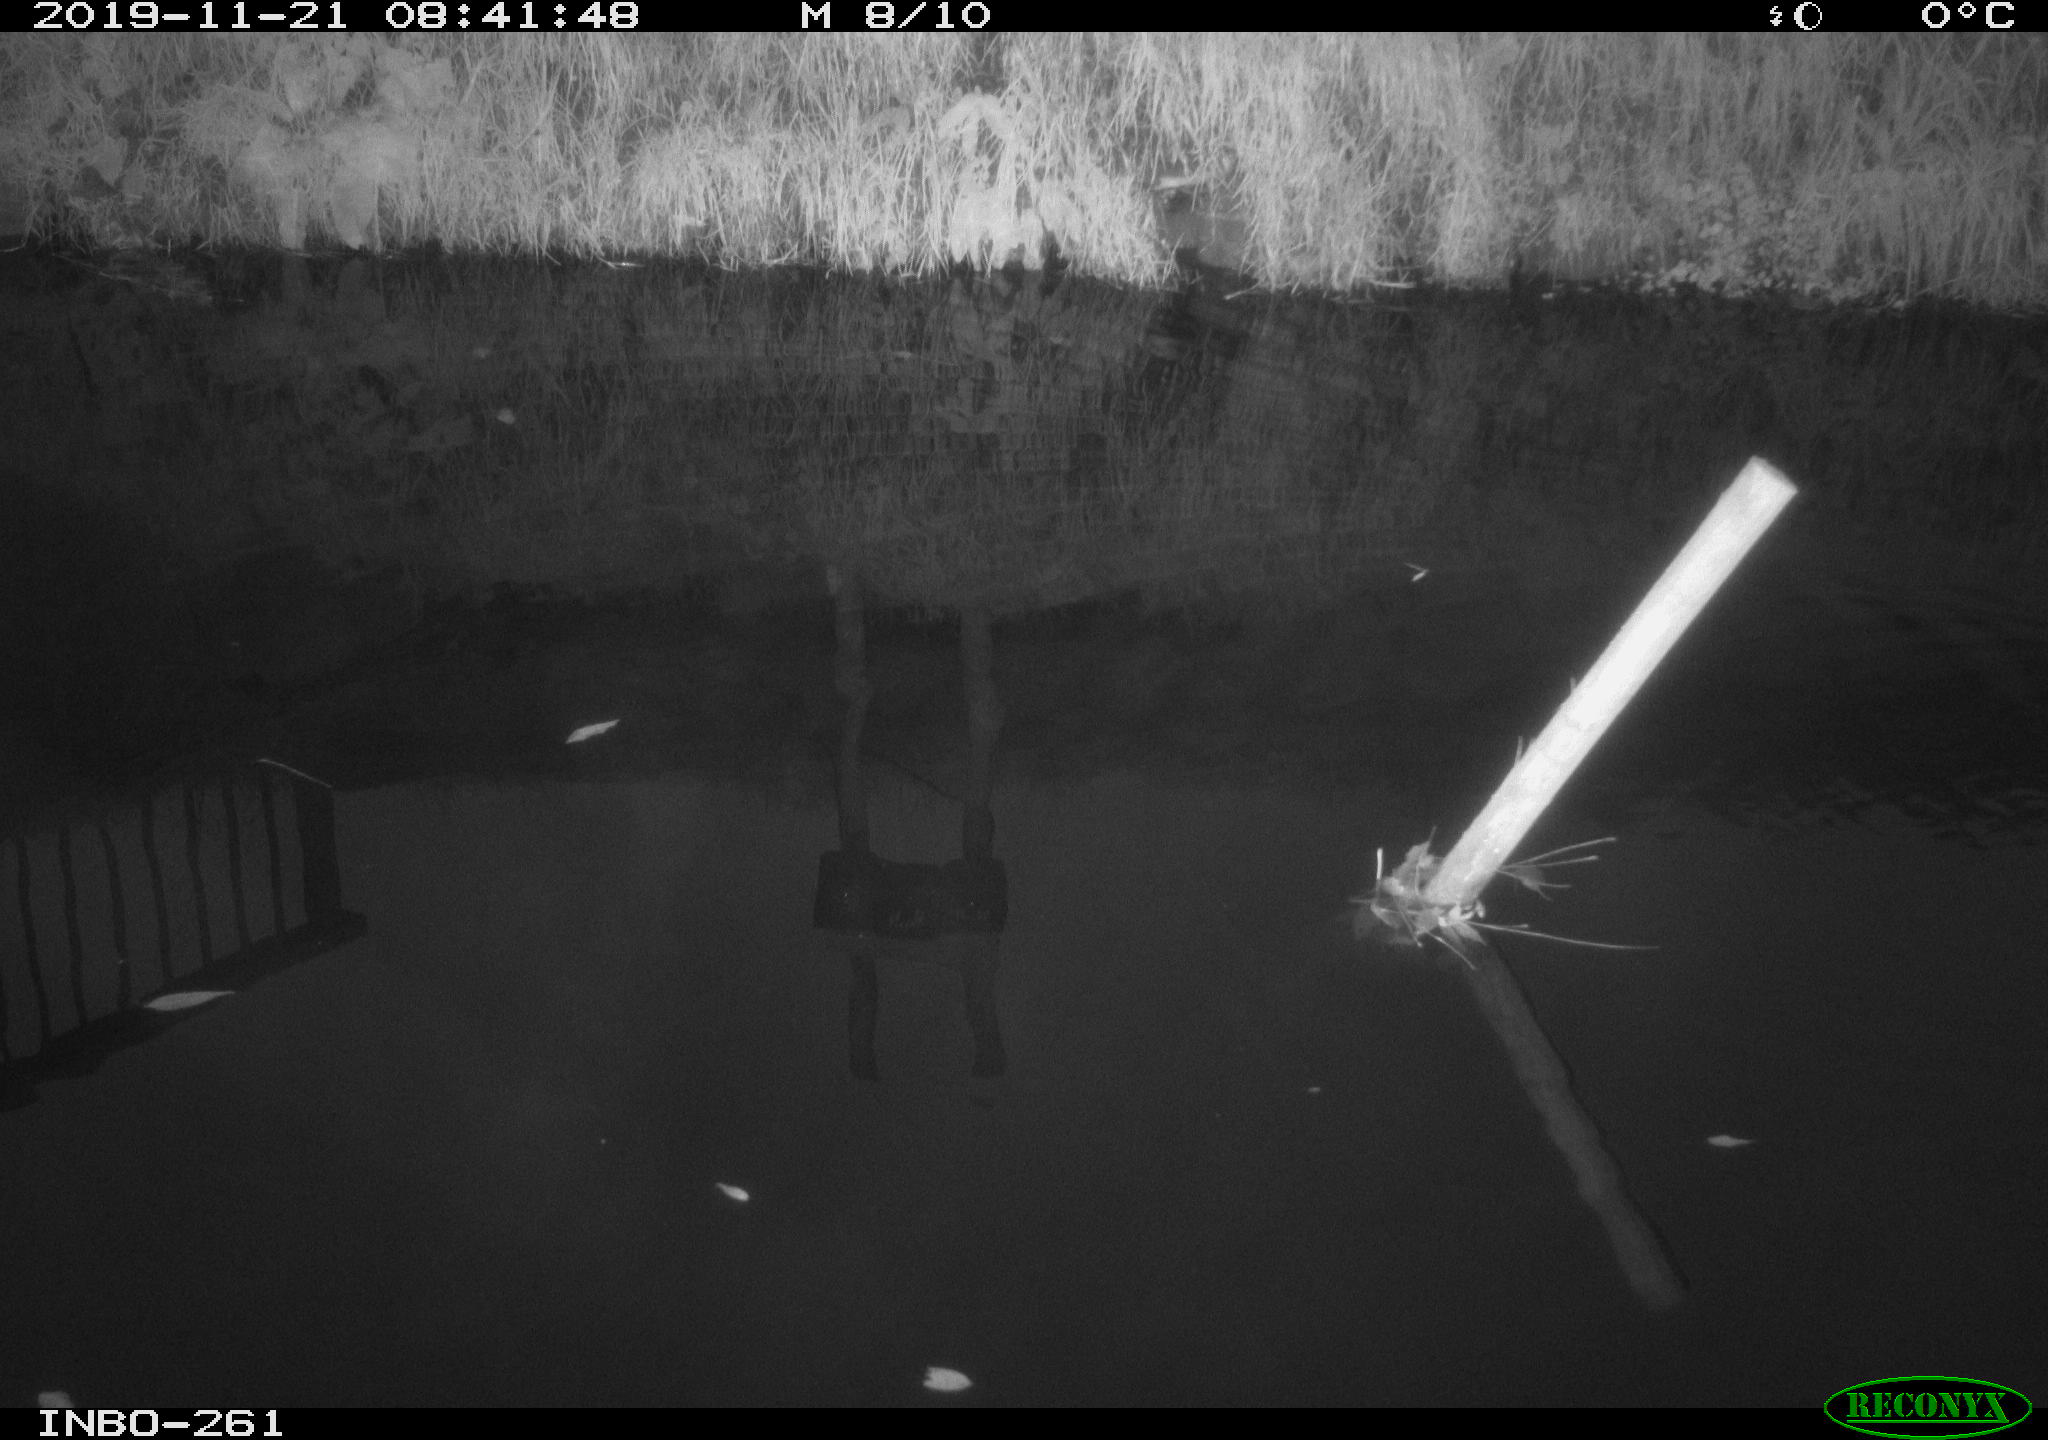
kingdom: Animalia
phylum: Chordata
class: Aves
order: Gruiformes
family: Rallidae
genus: Gallinula
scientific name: Gallinula chloropus
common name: Common moorhen
